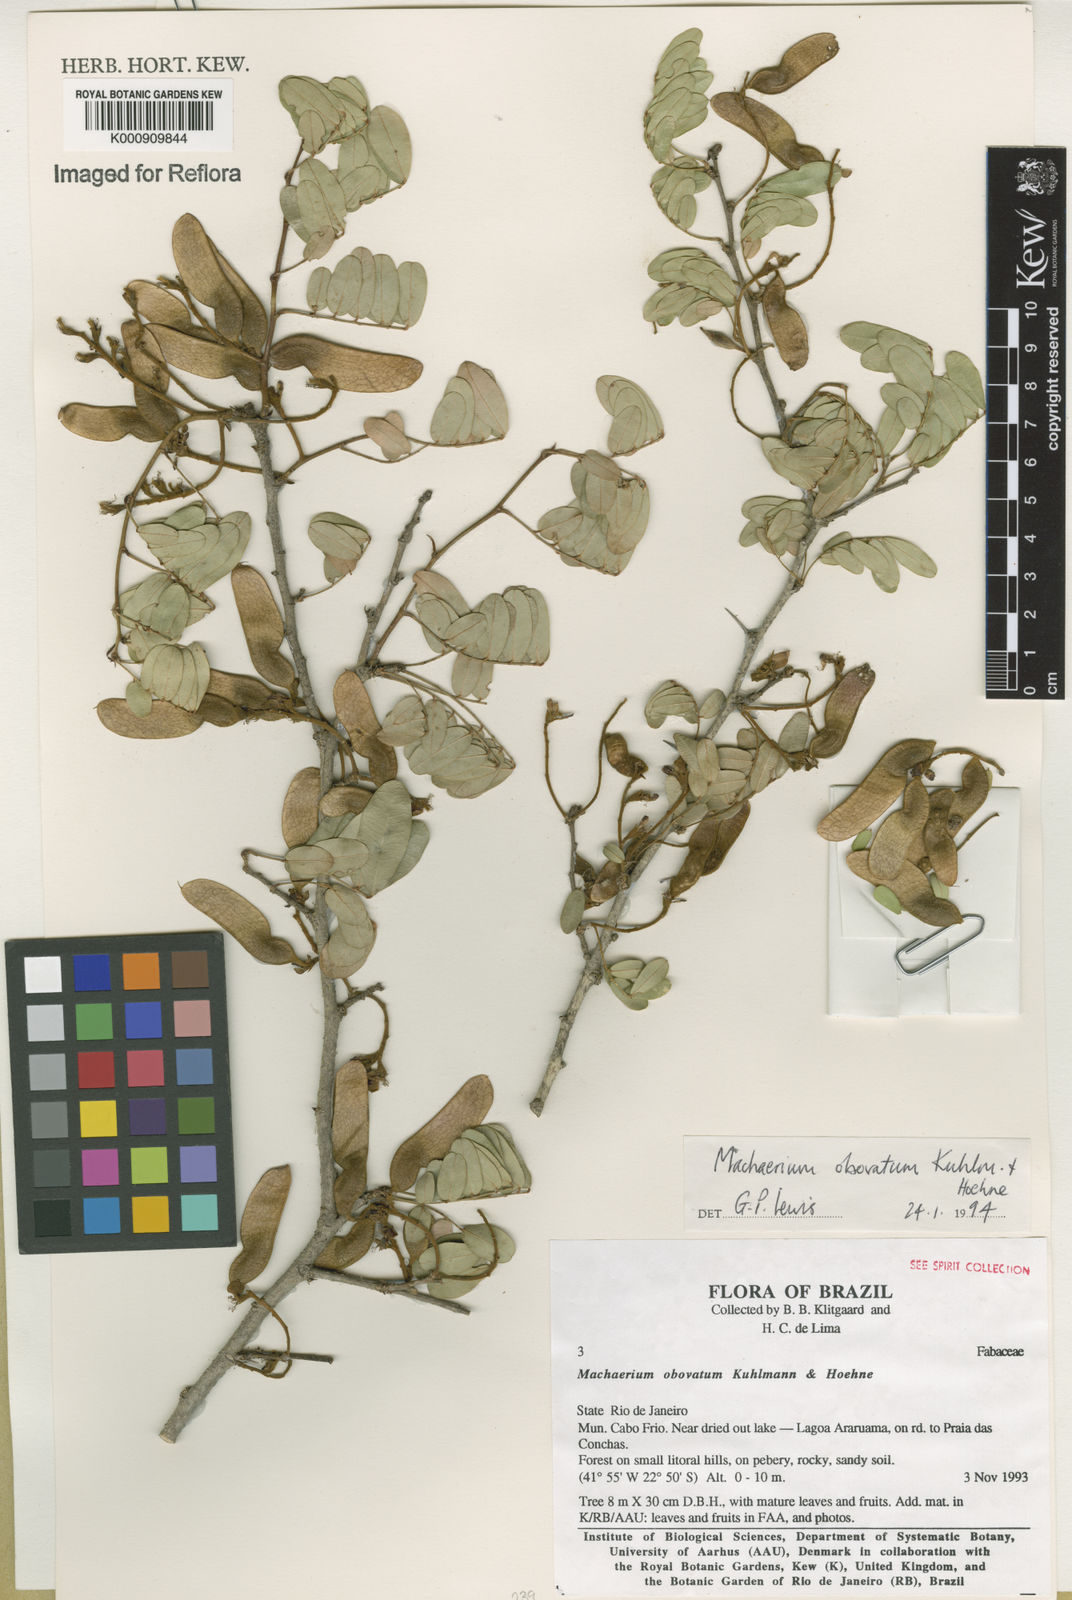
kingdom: Plantae
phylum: Tracheophyta
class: Magnoliopsida
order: Fabales
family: Fabaceae
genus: Machaerium
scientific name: Machaerium obovatum
